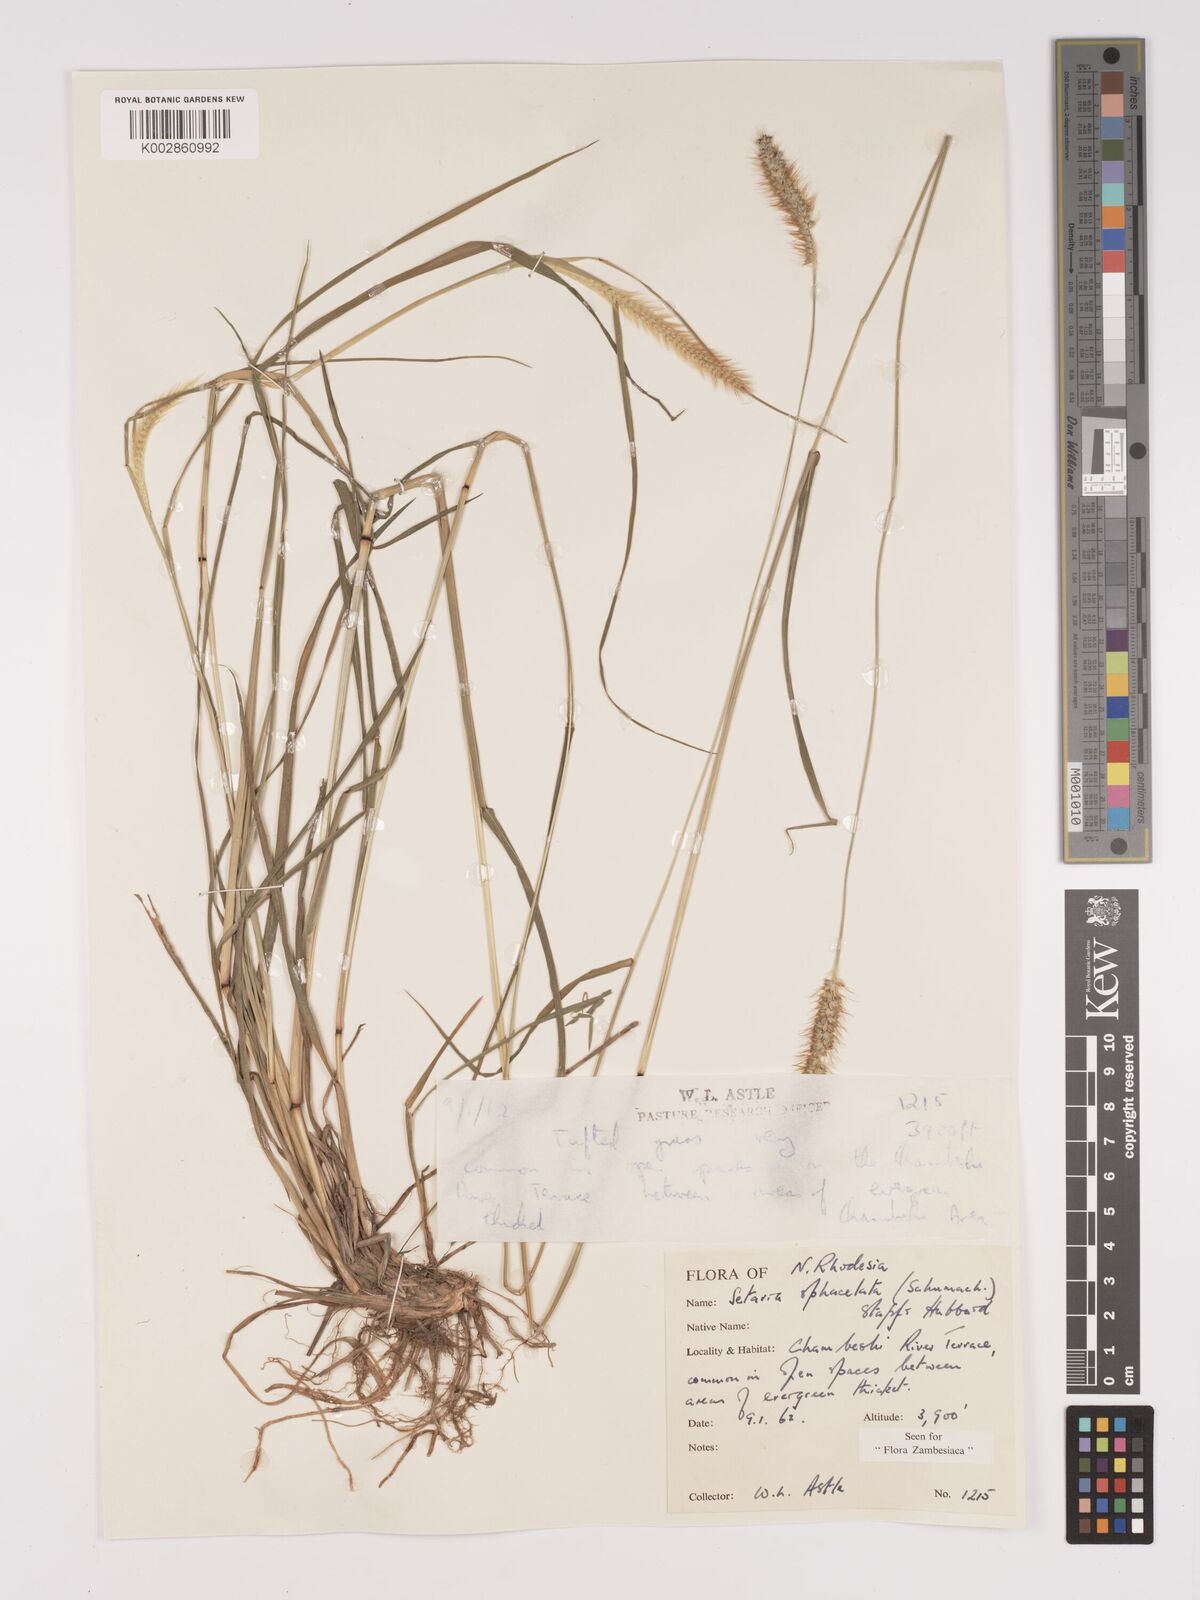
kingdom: Plantae
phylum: Tracheophyta
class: Liliopsida
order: Poales
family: Poaceae
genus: Setaria
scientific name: Setaria
